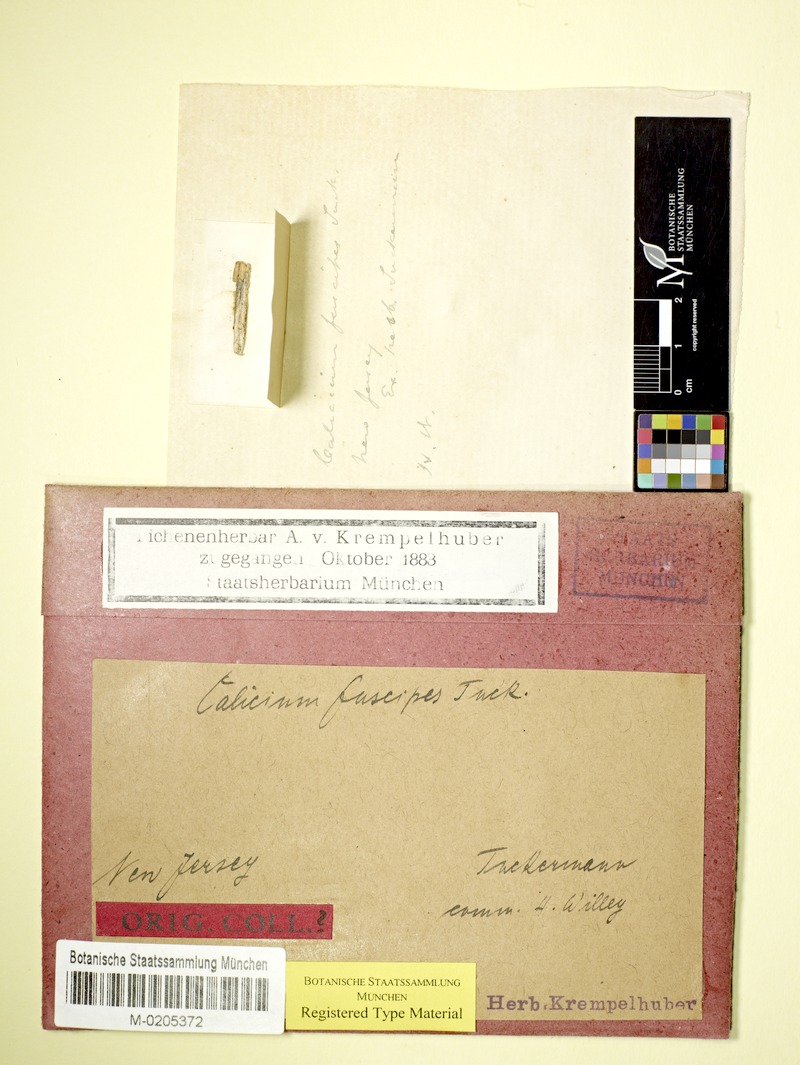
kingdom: Fungi
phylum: Ascomycota
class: Eurotiomycetes
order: Mycocaliciales
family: Mycocaliciaceae
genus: Mycocalicium
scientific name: Mycocalicium fuscipes
